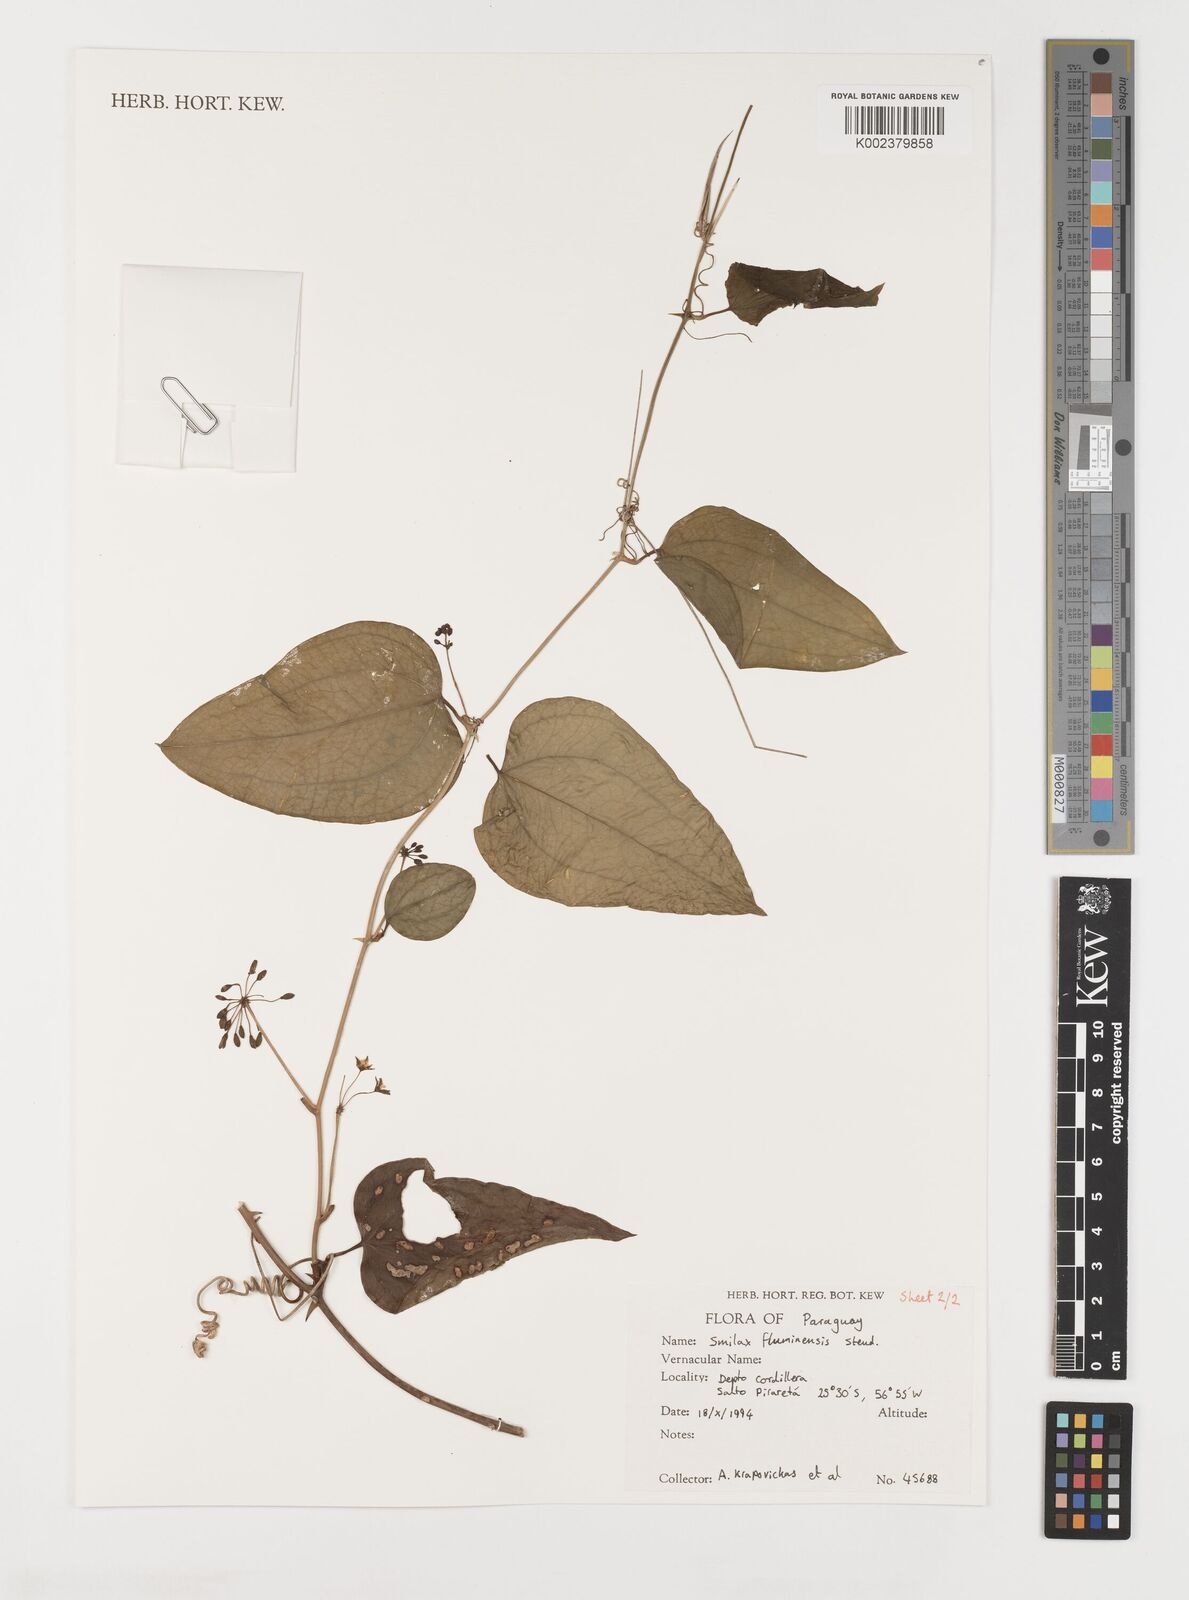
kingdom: Plantae
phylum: Tracheophyta
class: Liliopsida
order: Liliales
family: Smilacaceae
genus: Smilax
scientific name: Smilax fluminensis
